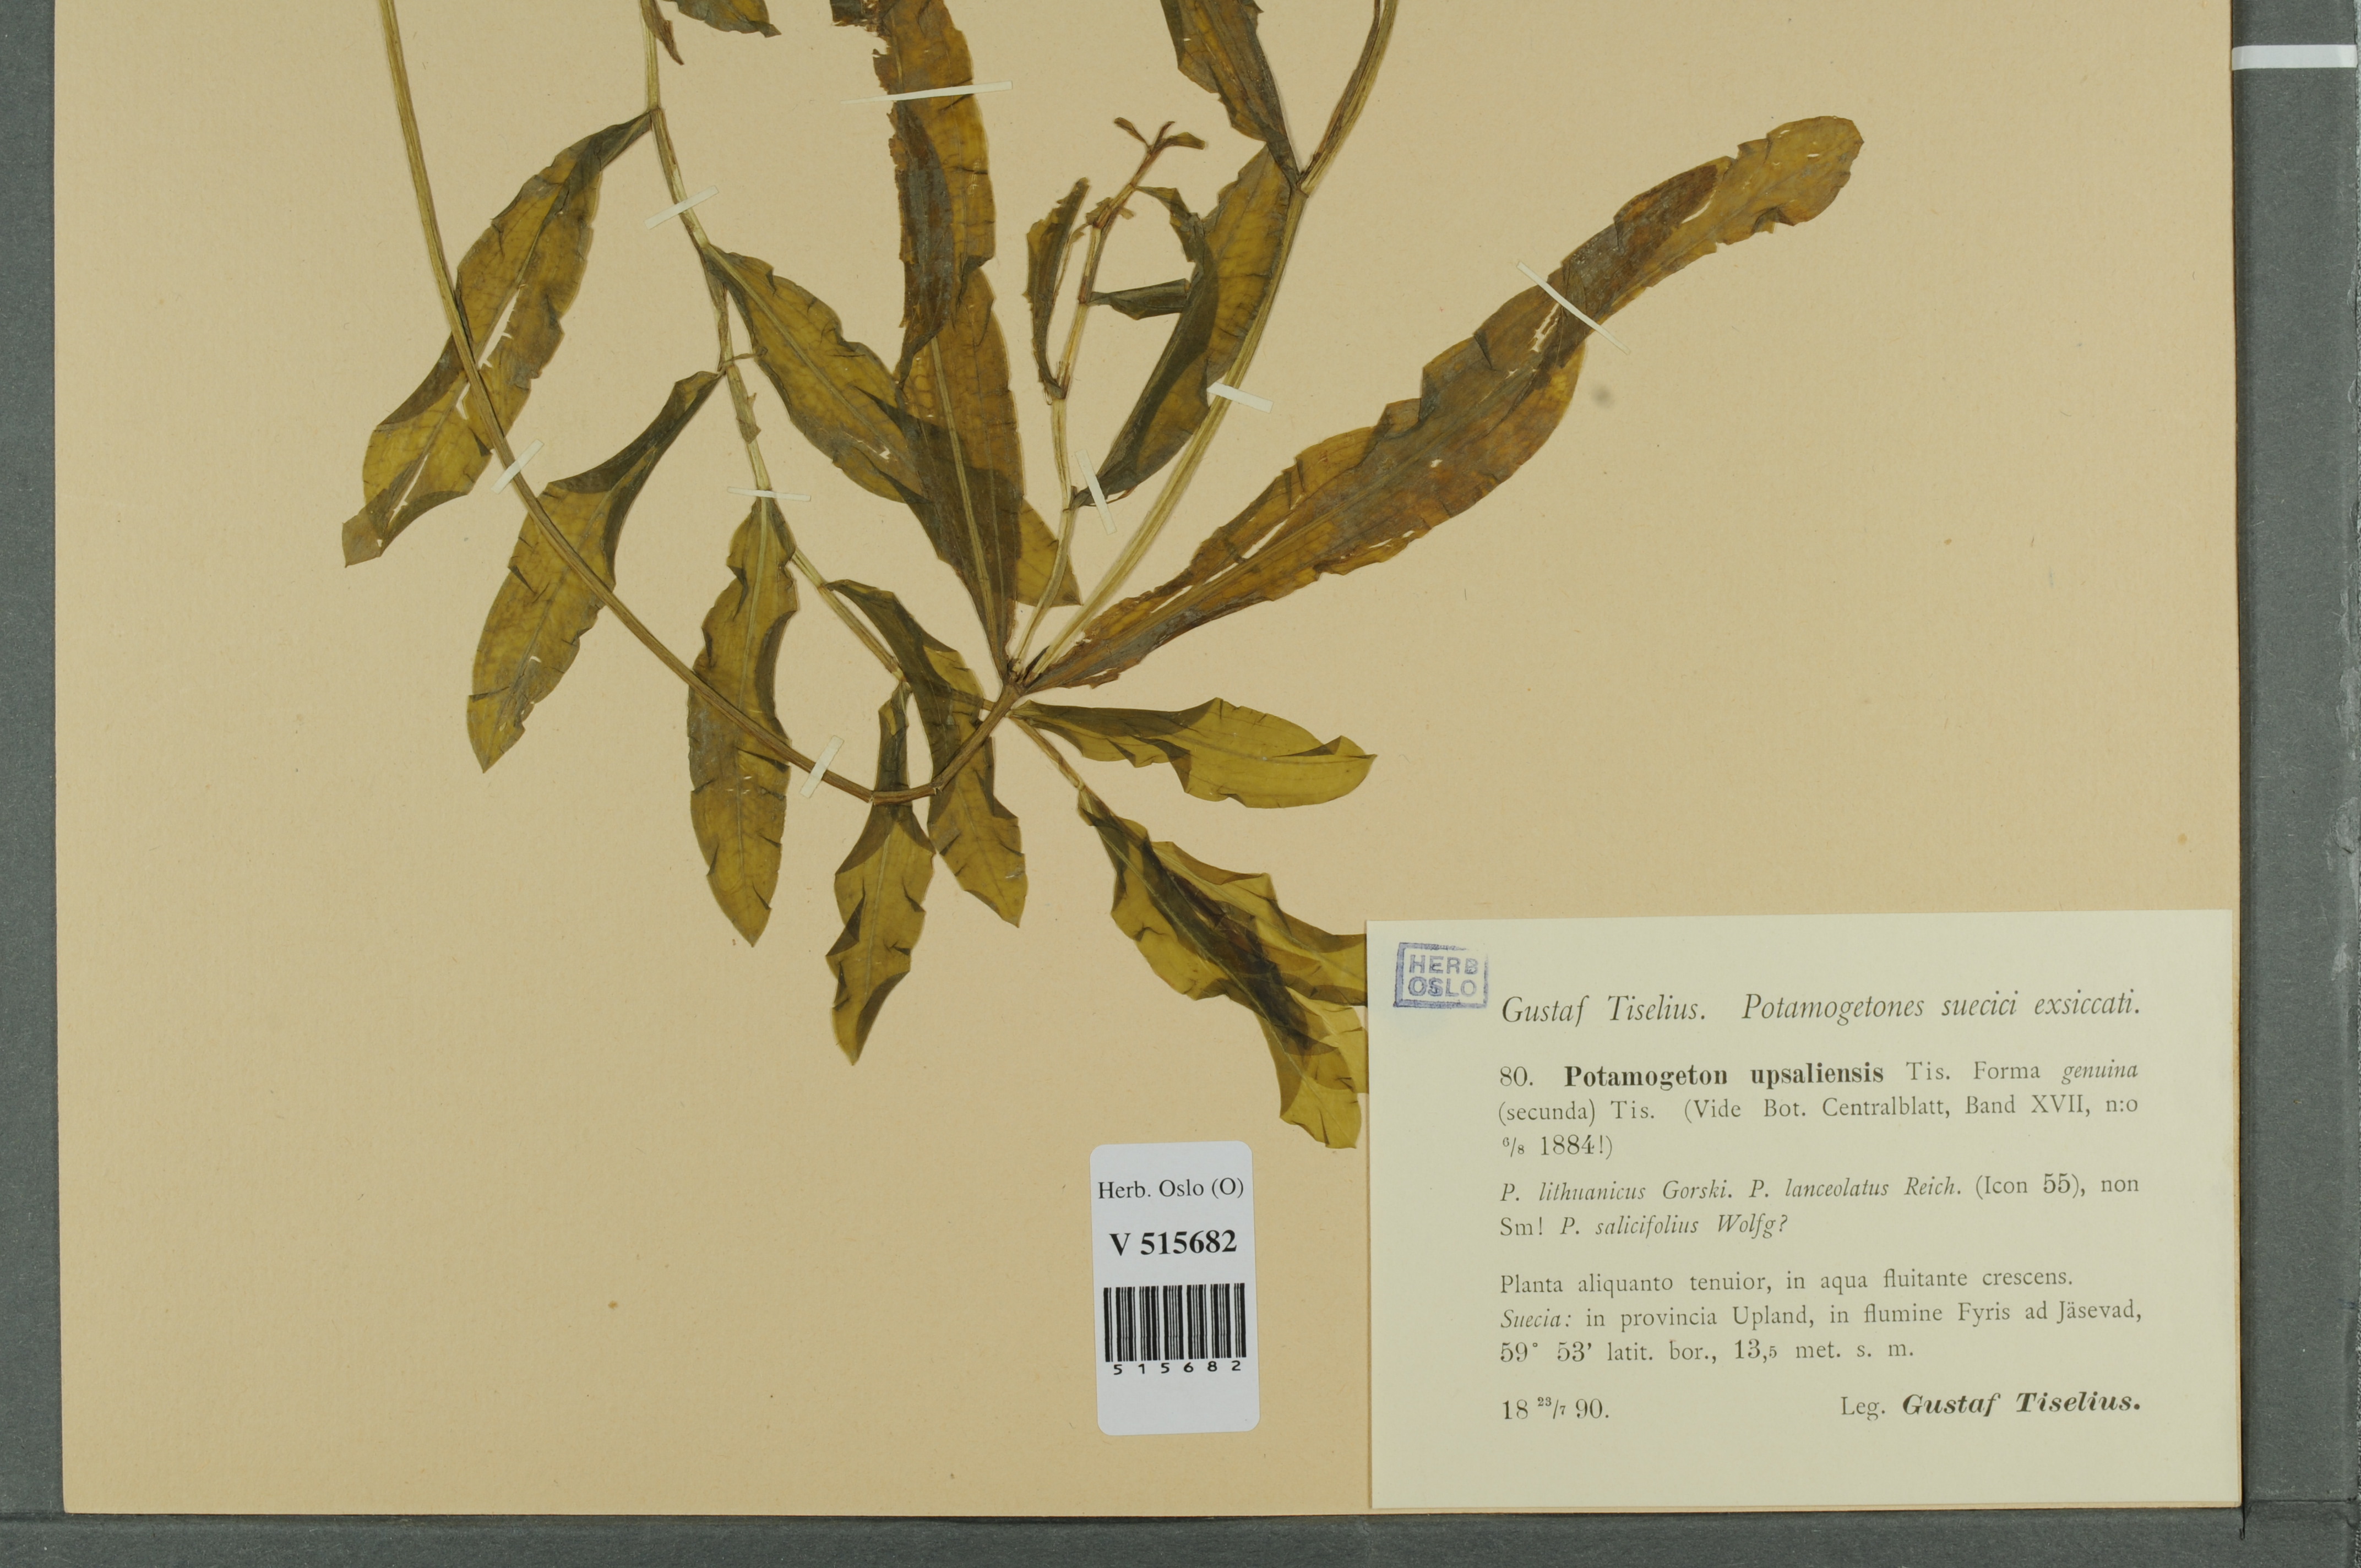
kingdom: Plantae
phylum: Tracheophyta
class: Liliopsida
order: Alismatales
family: Potamogetonaceae
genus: Potamogeton
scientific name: Potamogeton
